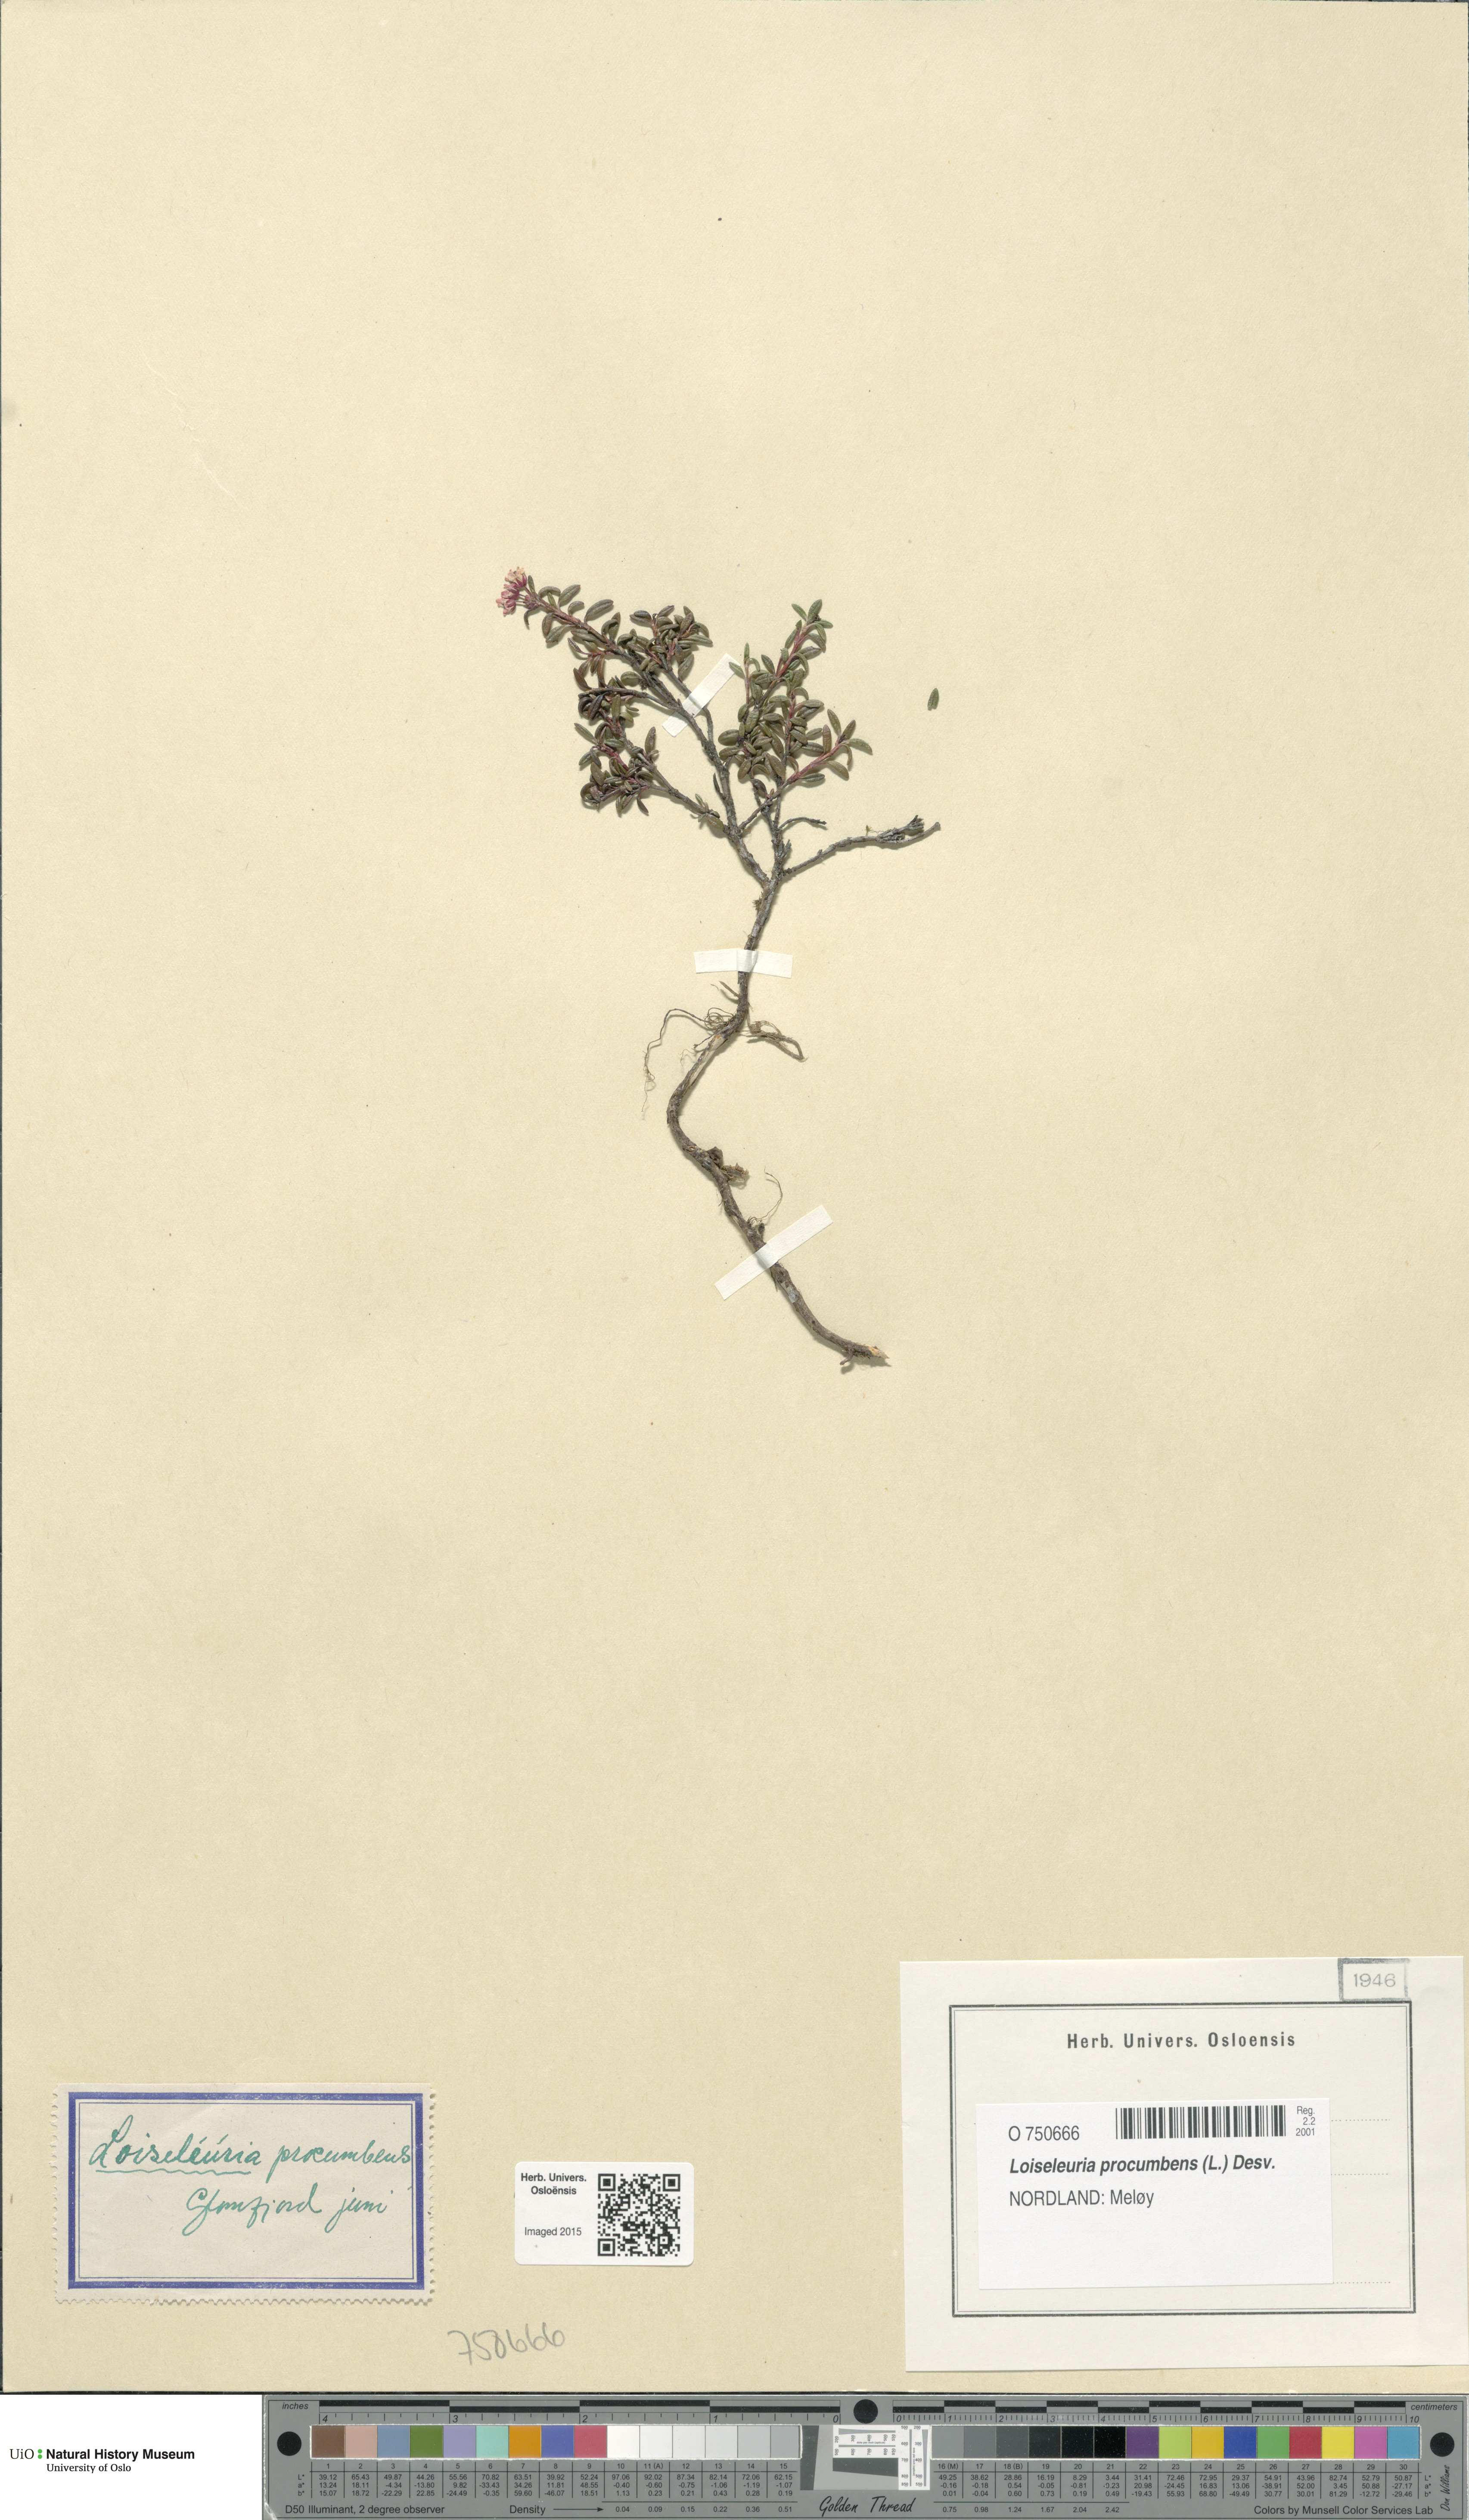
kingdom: Plantae
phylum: Tracheophyta
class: Magnoliopsida
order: Ericales
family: Ericaceae
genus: Kalmia
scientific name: Kalmia procumbens
